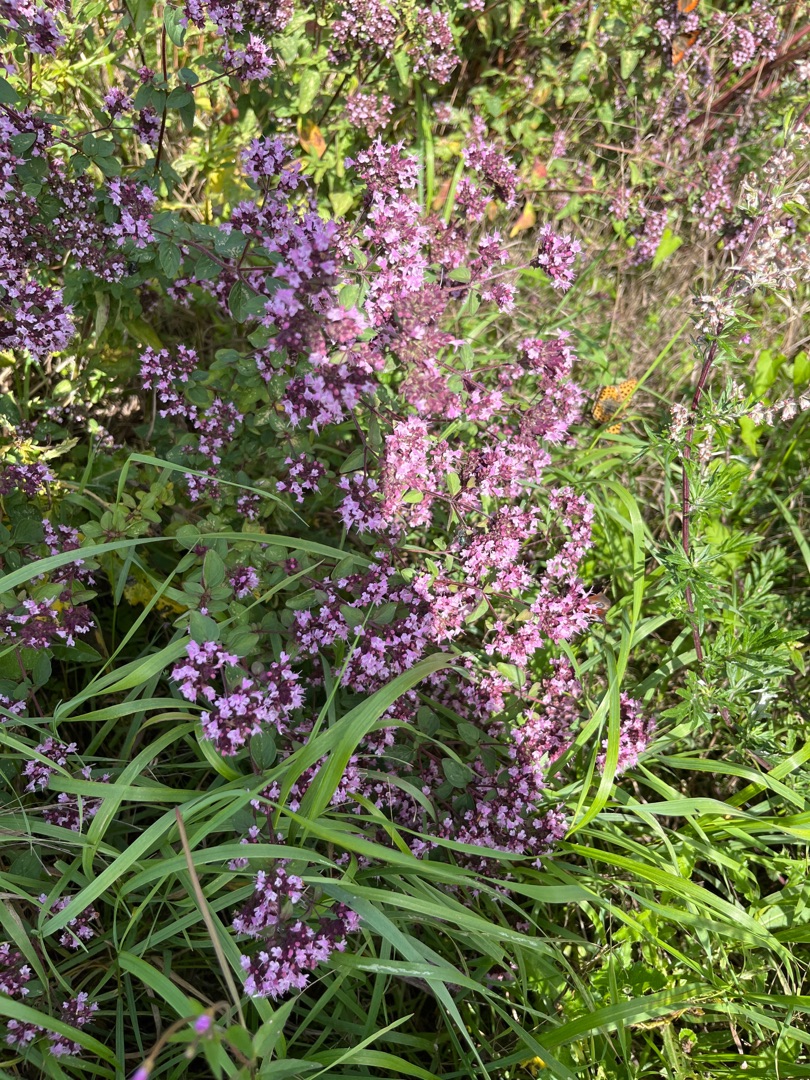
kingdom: Plantae
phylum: Tracheophyta
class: Magnoliopsida
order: Lamiales
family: Lamiaceae
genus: Origanum
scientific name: Origanum vulgare
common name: Merian
